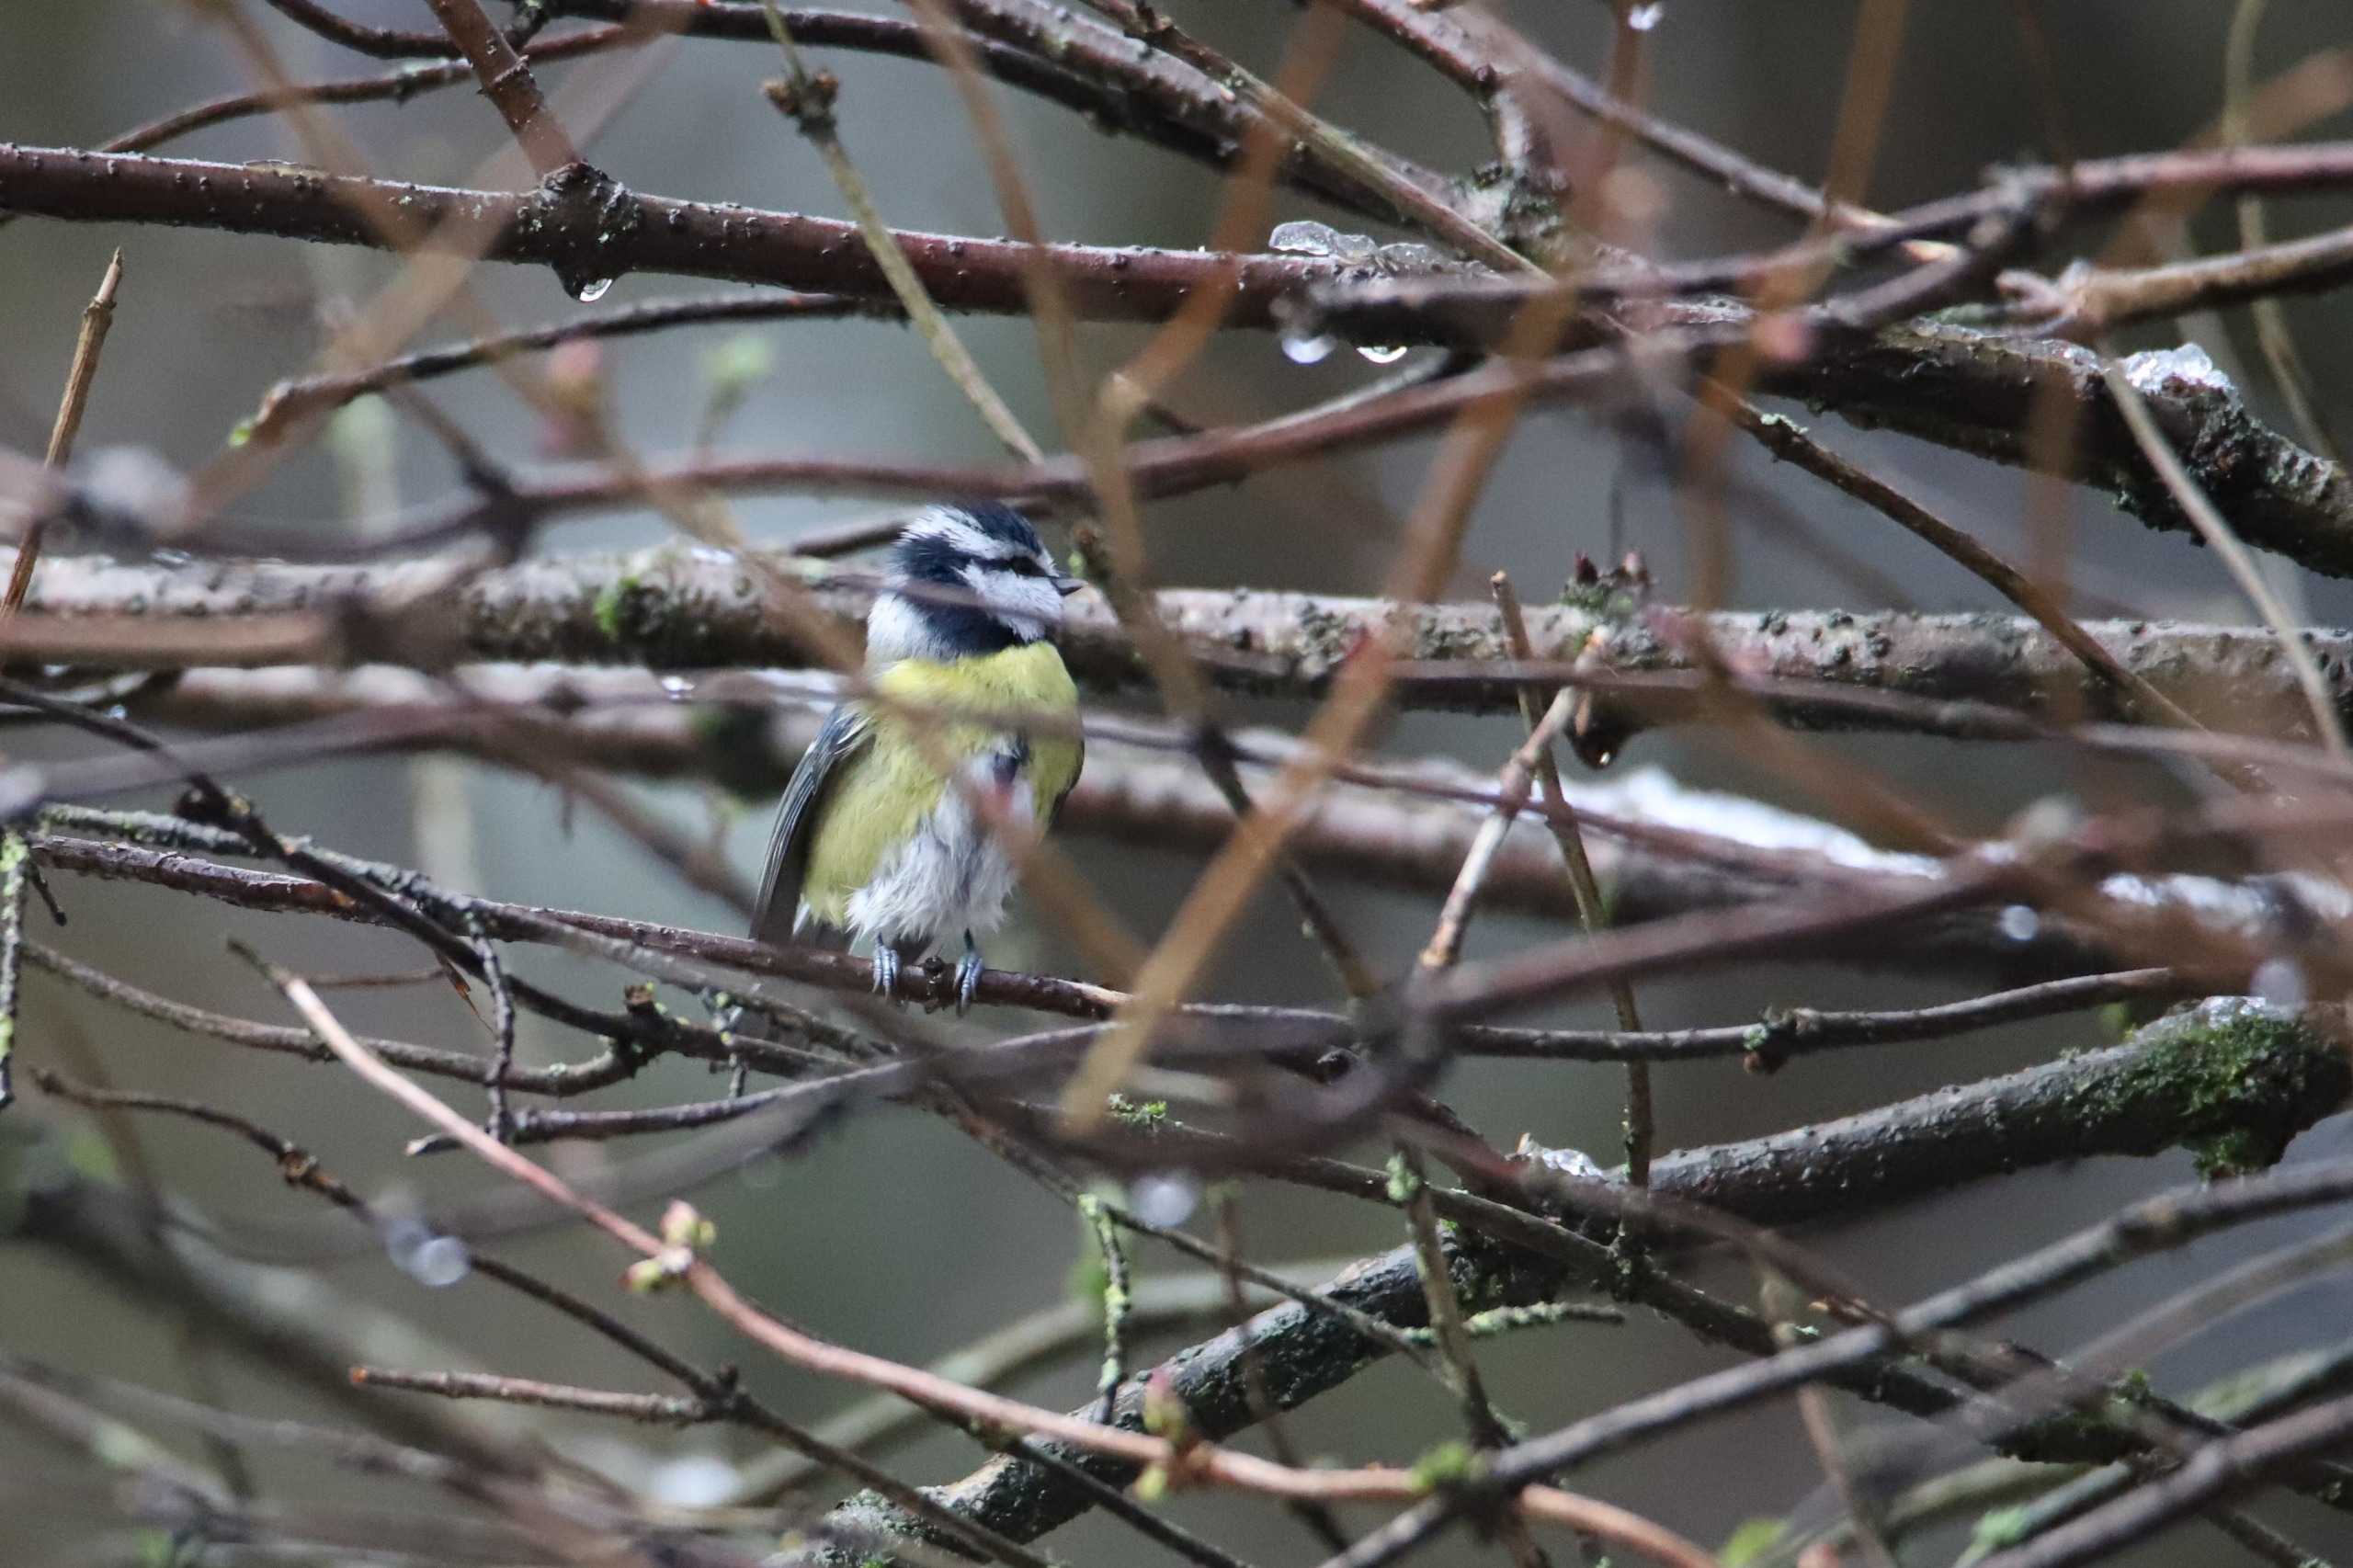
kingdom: Animalia
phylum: Chordata
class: Aves
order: Passeriformes
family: Paridae
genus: Cyanistes
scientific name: Cyanistes caeruleus
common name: Blåmejse
